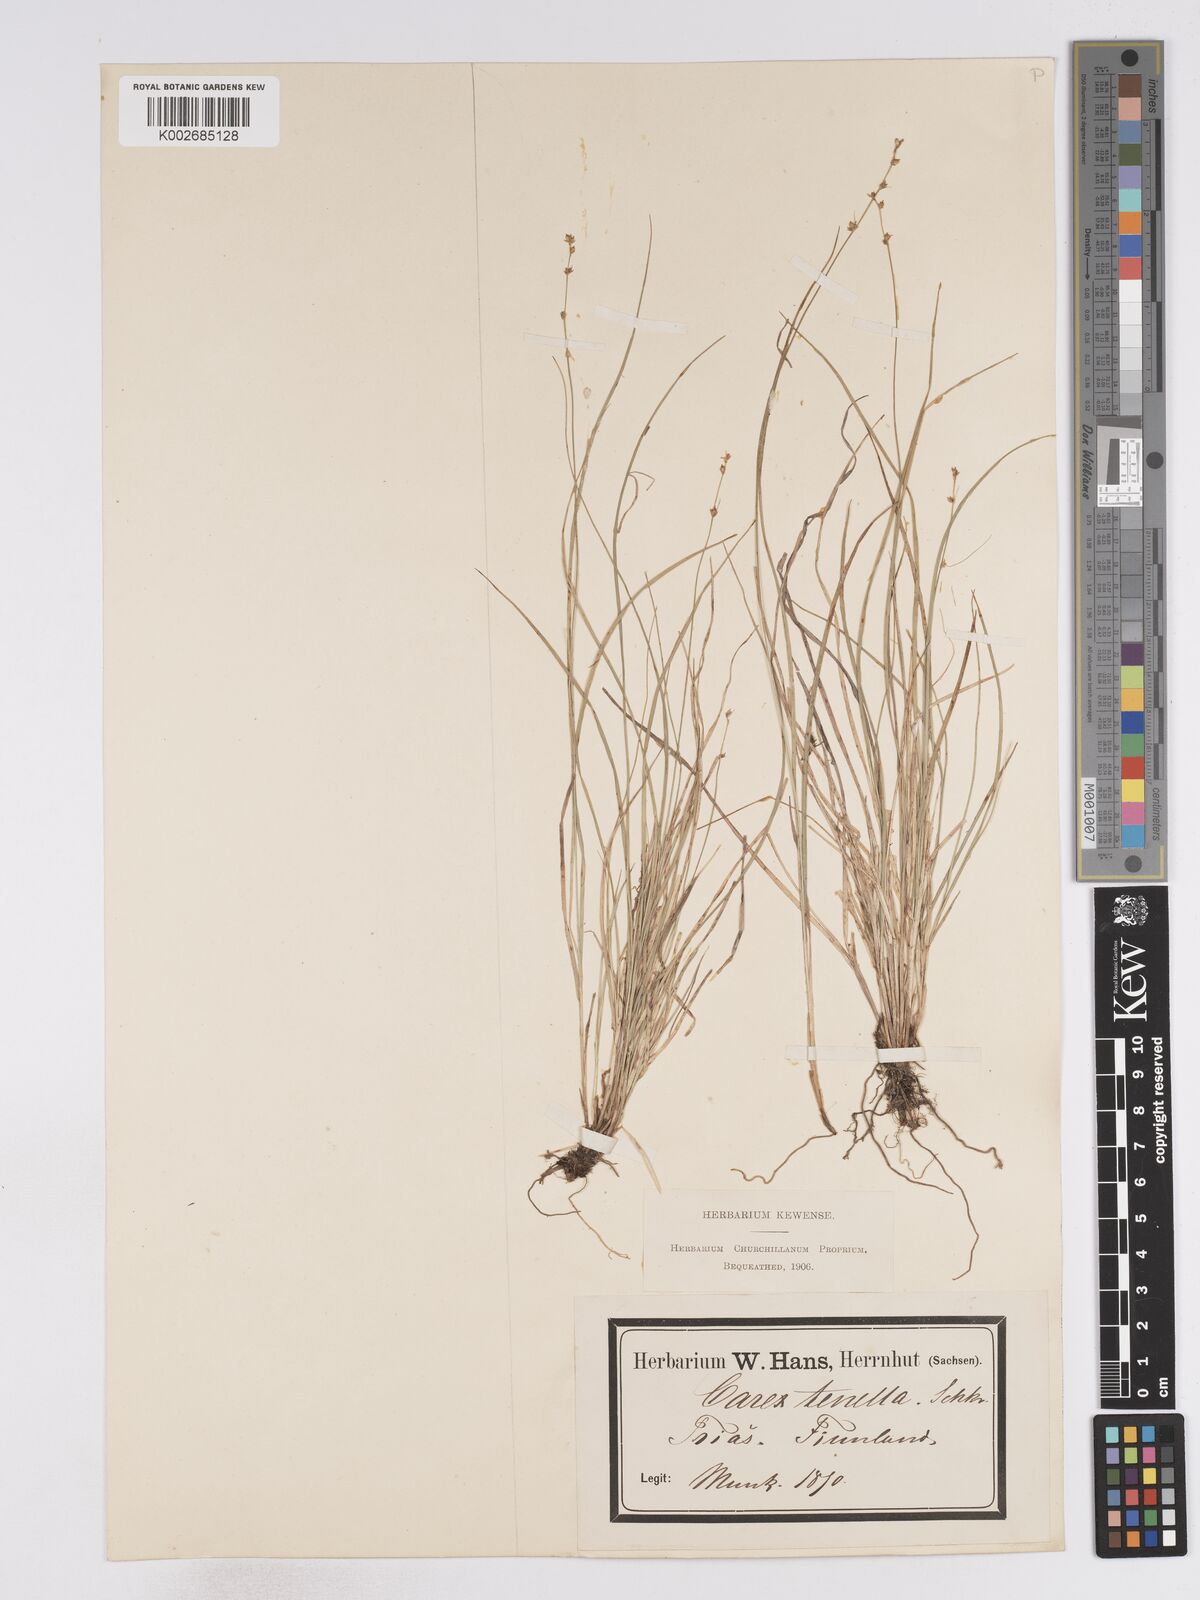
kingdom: Plantae
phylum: Tracheophyta
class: Liliopsida
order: Poales
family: Cyperaceae
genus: Carex
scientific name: Carex disperma
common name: Short-leaved sedge
